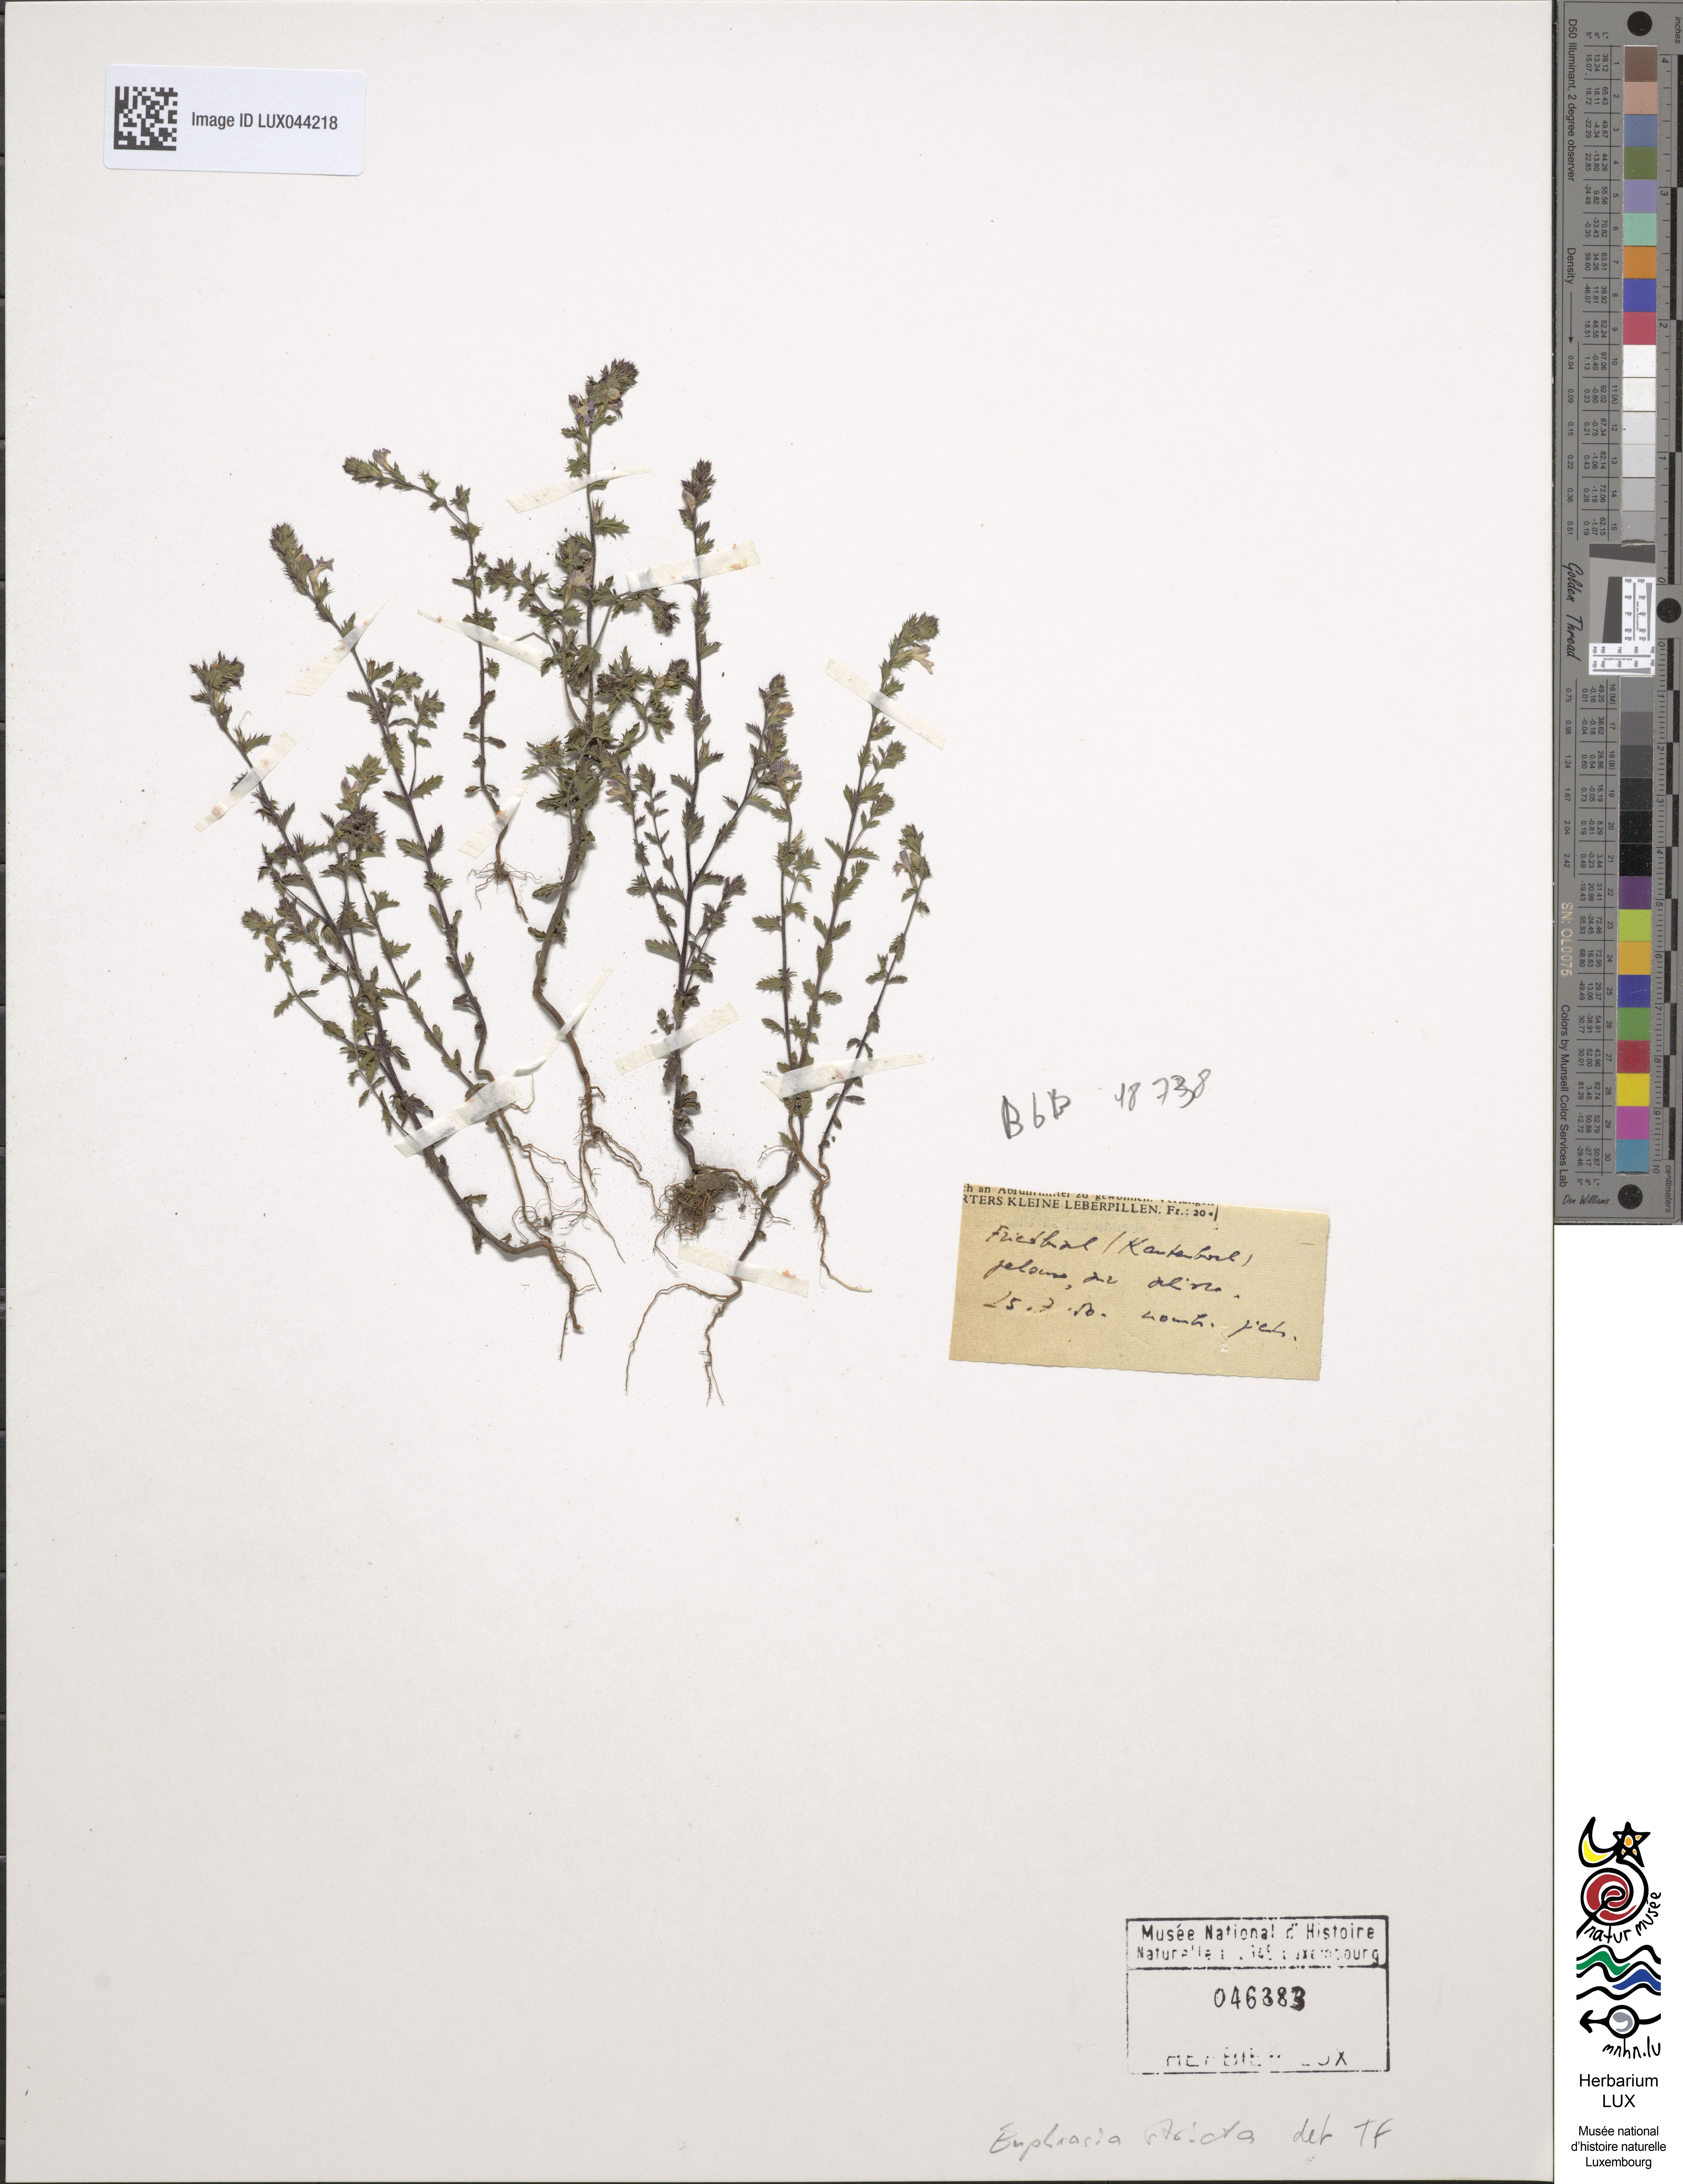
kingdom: Plantae
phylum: Tracheophyta
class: Magnoliopsida
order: Lamiales
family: Orobanchaceae
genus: Euphrasia
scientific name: Euphrasia stricta
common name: Drug eyebright
